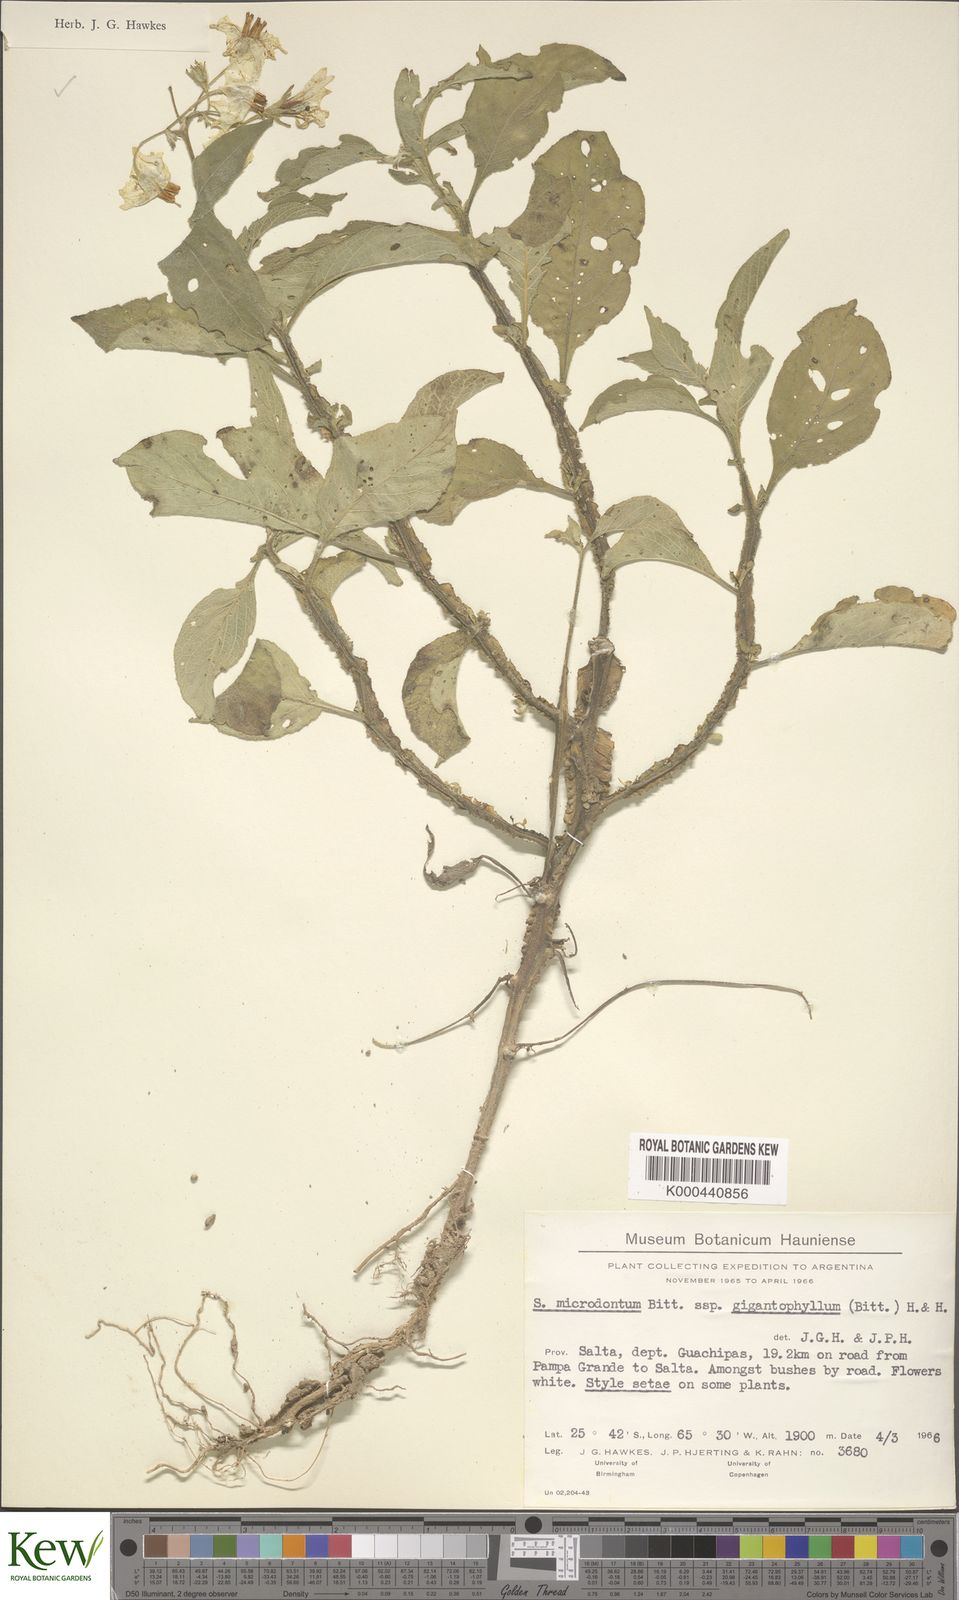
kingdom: Plantae
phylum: Tracheophyta
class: Magnoliopsida
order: Solanales
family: Solanaceae
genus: Solanum
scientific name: Solanum microdontum
